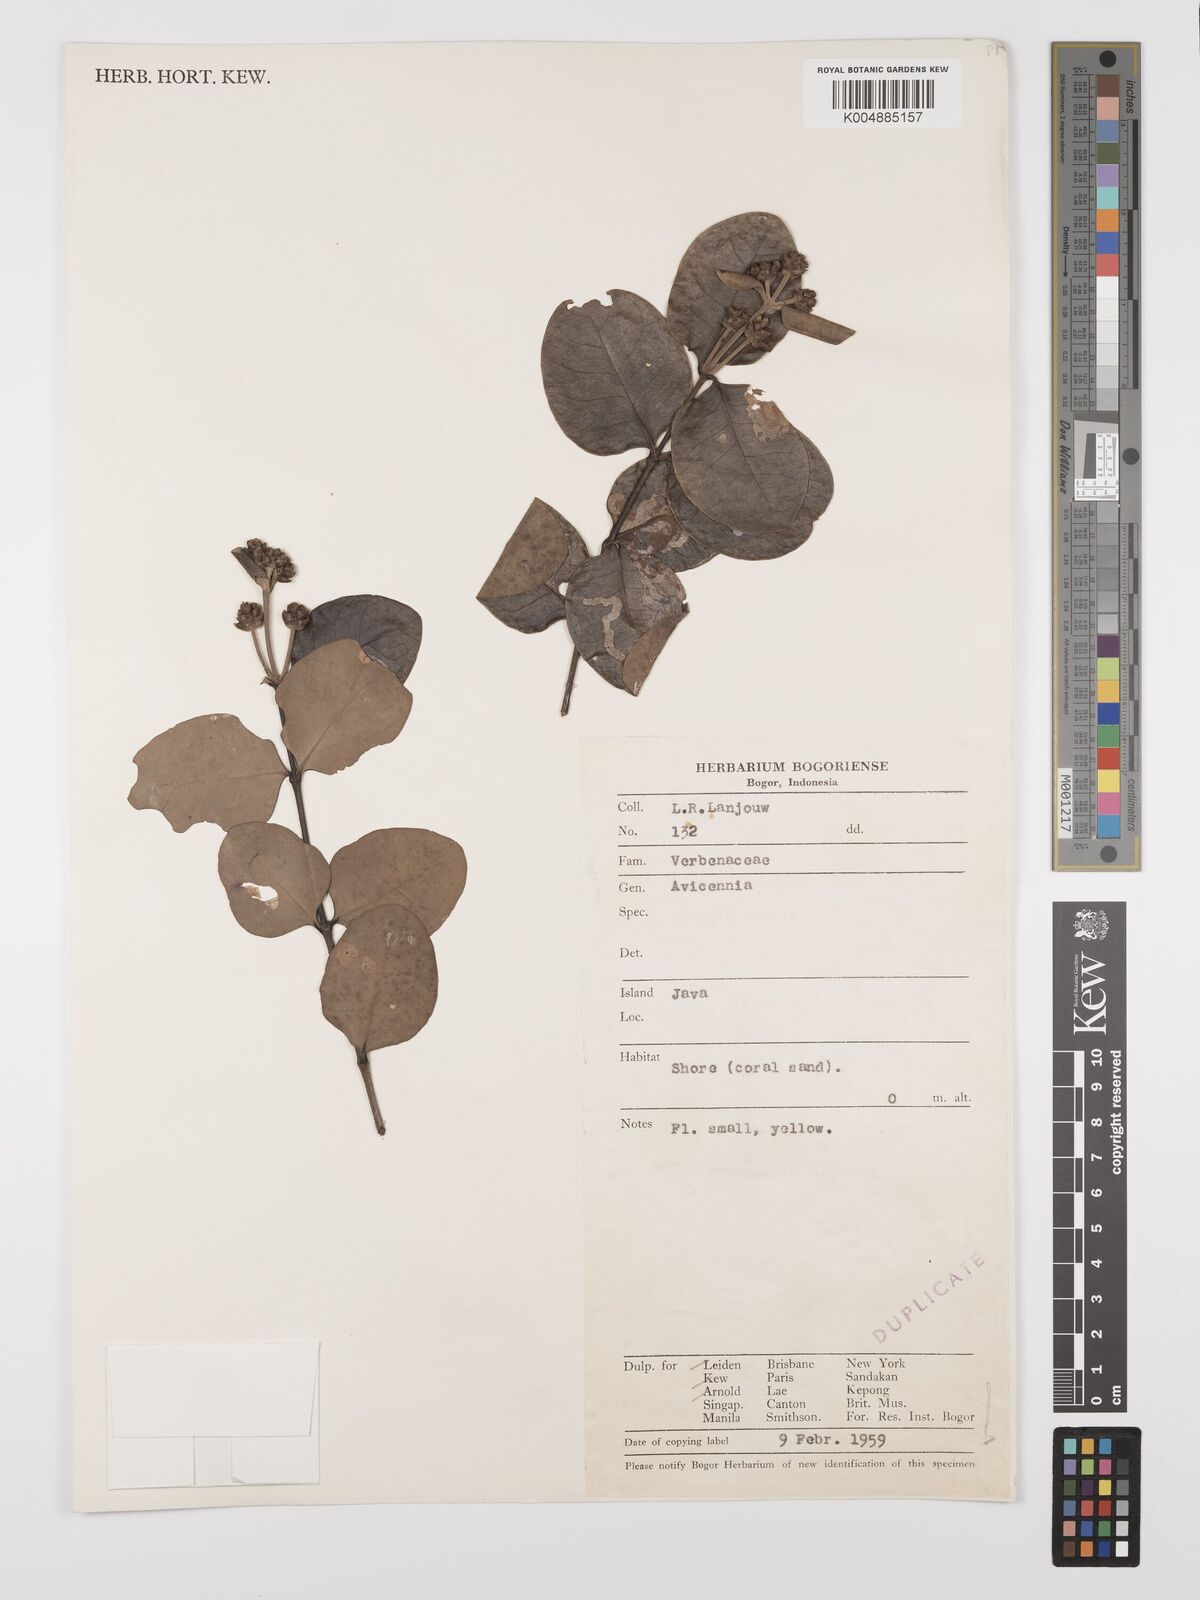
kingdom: Plantae
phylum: Tracheophyta
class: Magnoliopsida
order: Lamiales
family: Acanthaceae
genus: Avicennia
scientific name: Avicennia
